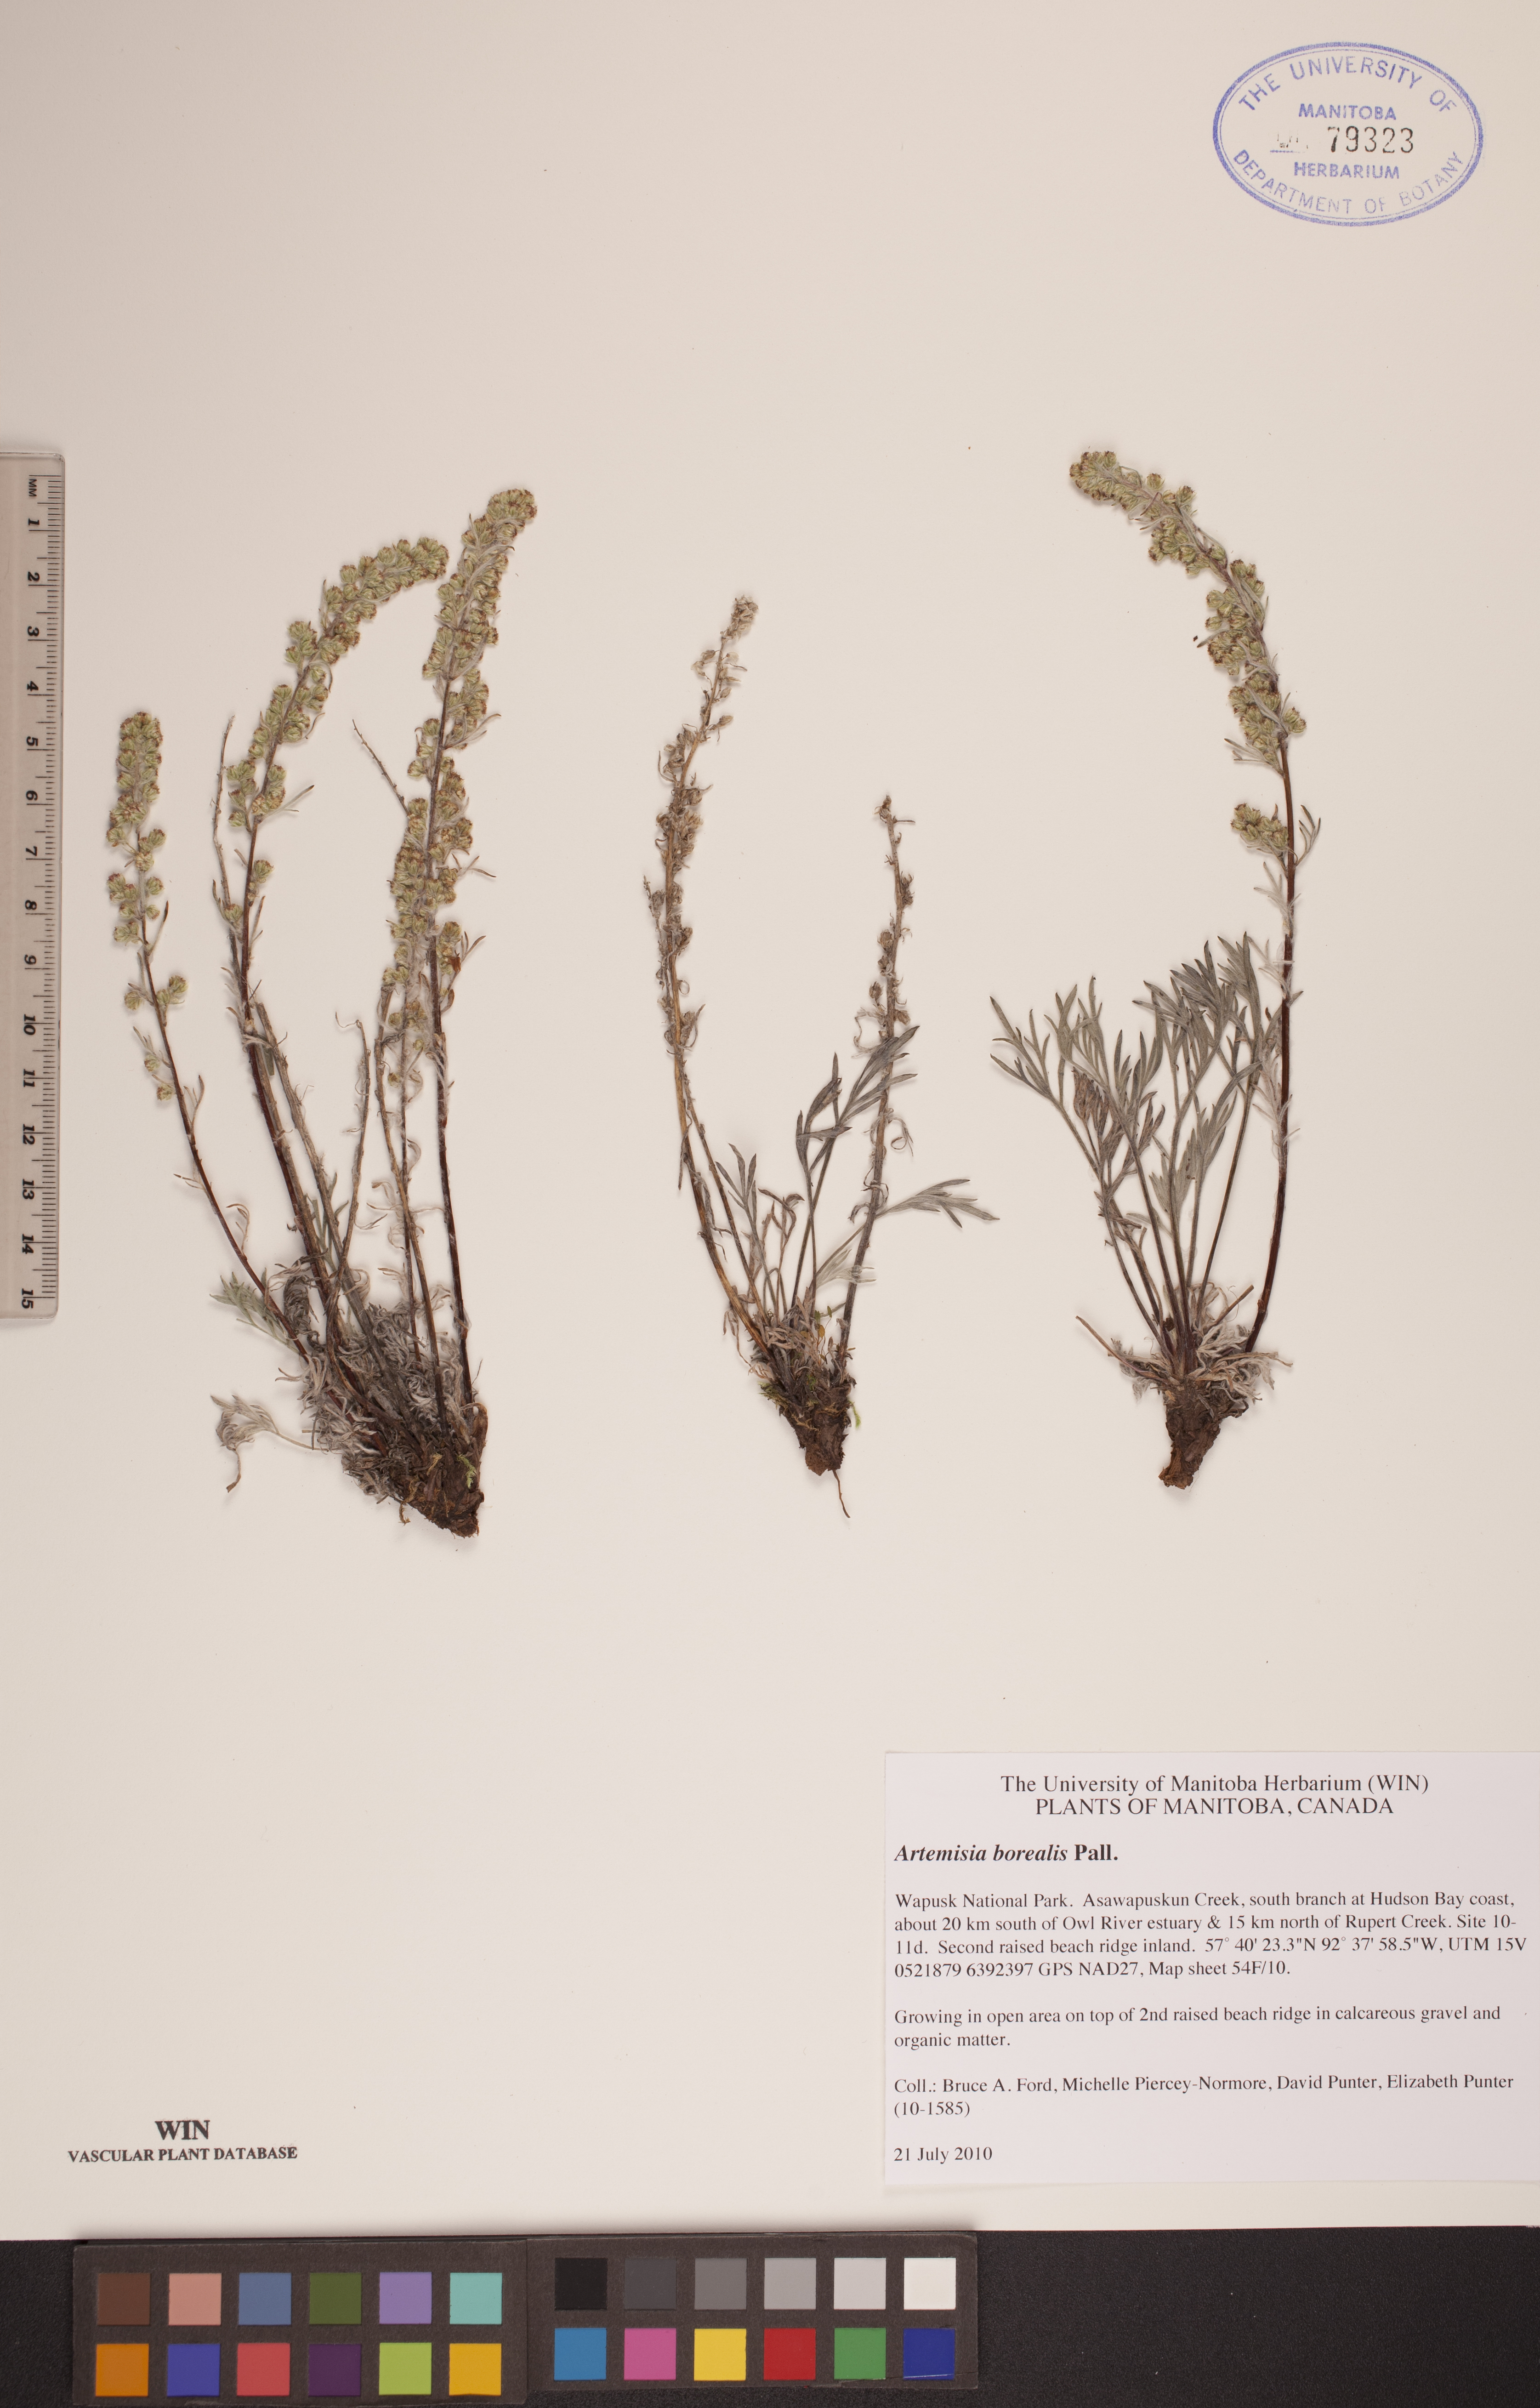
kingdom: Plantae
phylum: Tracheophyta
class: Magnoliopsida
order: Asterales
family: Asteraceae
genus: Artemisia
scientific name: Artemisia borealis
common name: Boreal sage
